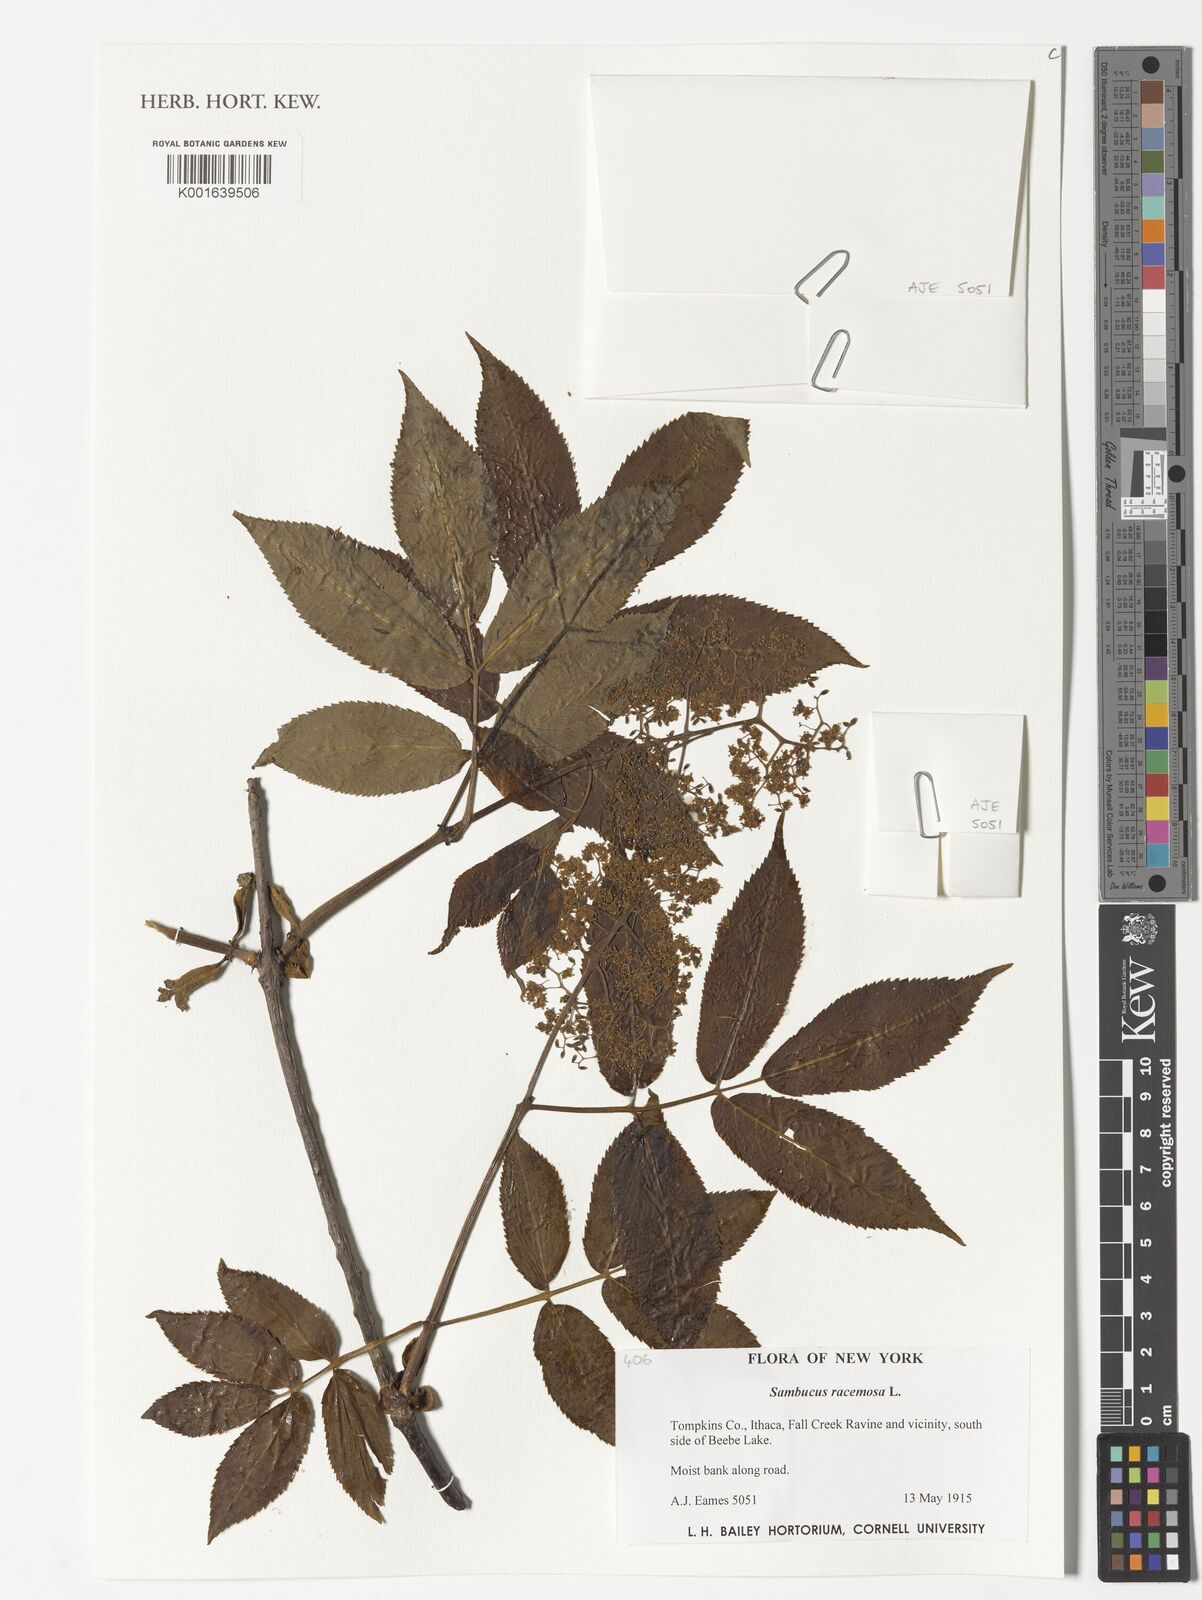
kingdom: Plantae
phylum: Tracheophyta
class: Magnoliopsida
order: Dipsacales
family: Viburnaceae
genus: Sambucus
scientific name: Sambucus racemosa
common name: Red-berried elder
